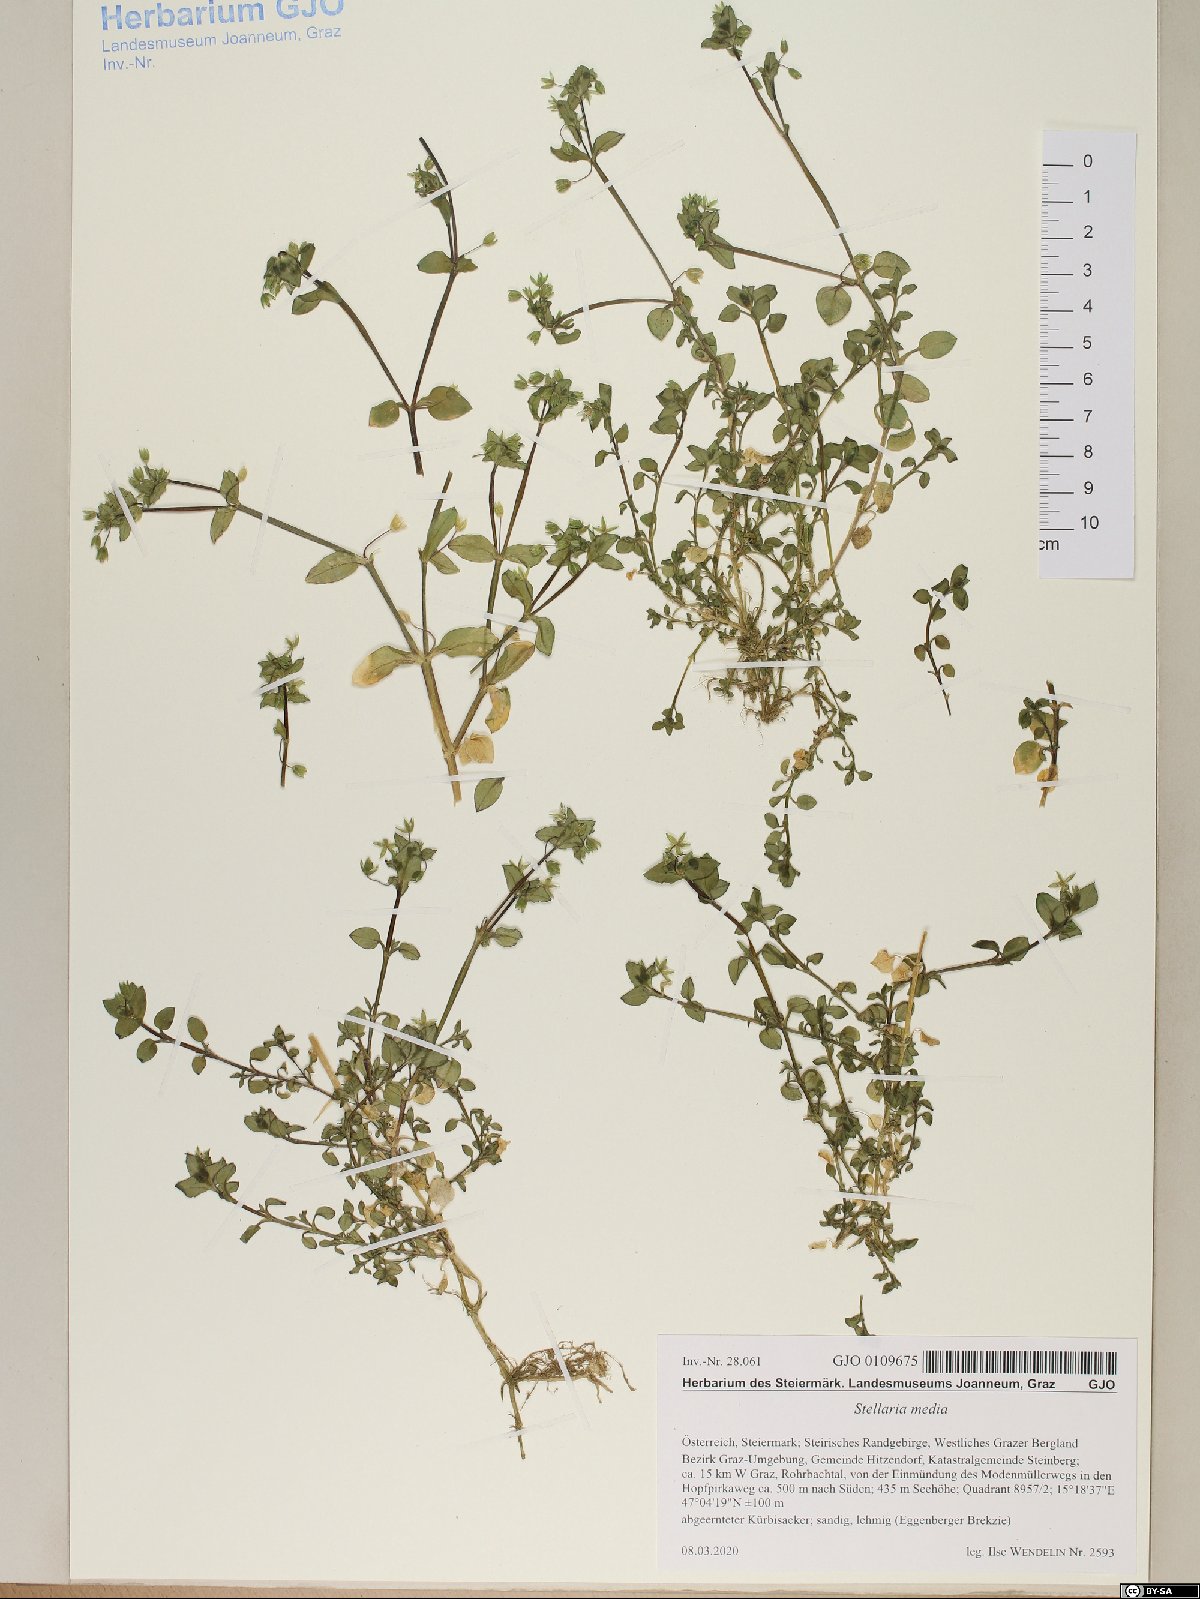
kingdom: Plantae
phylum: Tracheophyta
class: Magnoliopsida
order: Caryophyllales
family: Caryophyllaceae
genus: Stellaria
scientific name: Stellaria media
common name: Common chickweed
